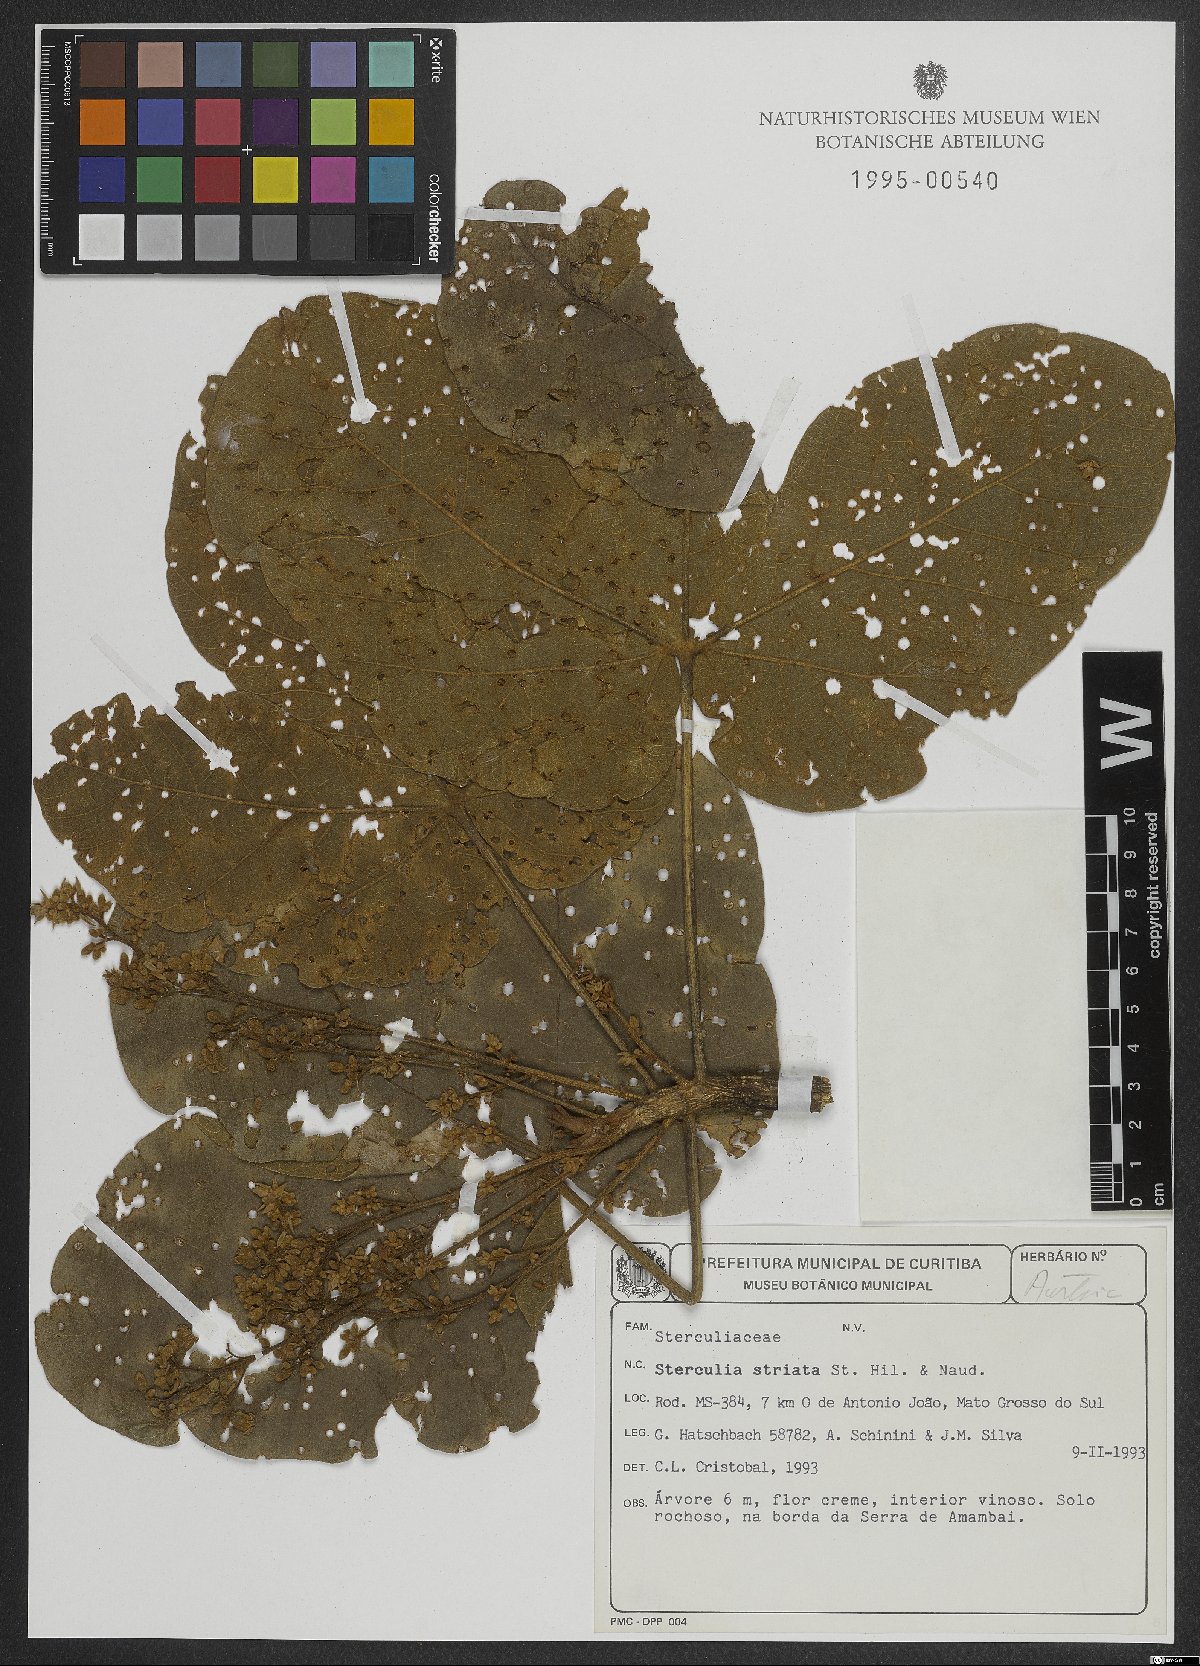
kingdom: Plantae
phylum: Tracheophyta
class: Magnoliopsida
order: Malvales
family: Malvaceae
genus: Sterculia
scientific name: Sterculia striata
